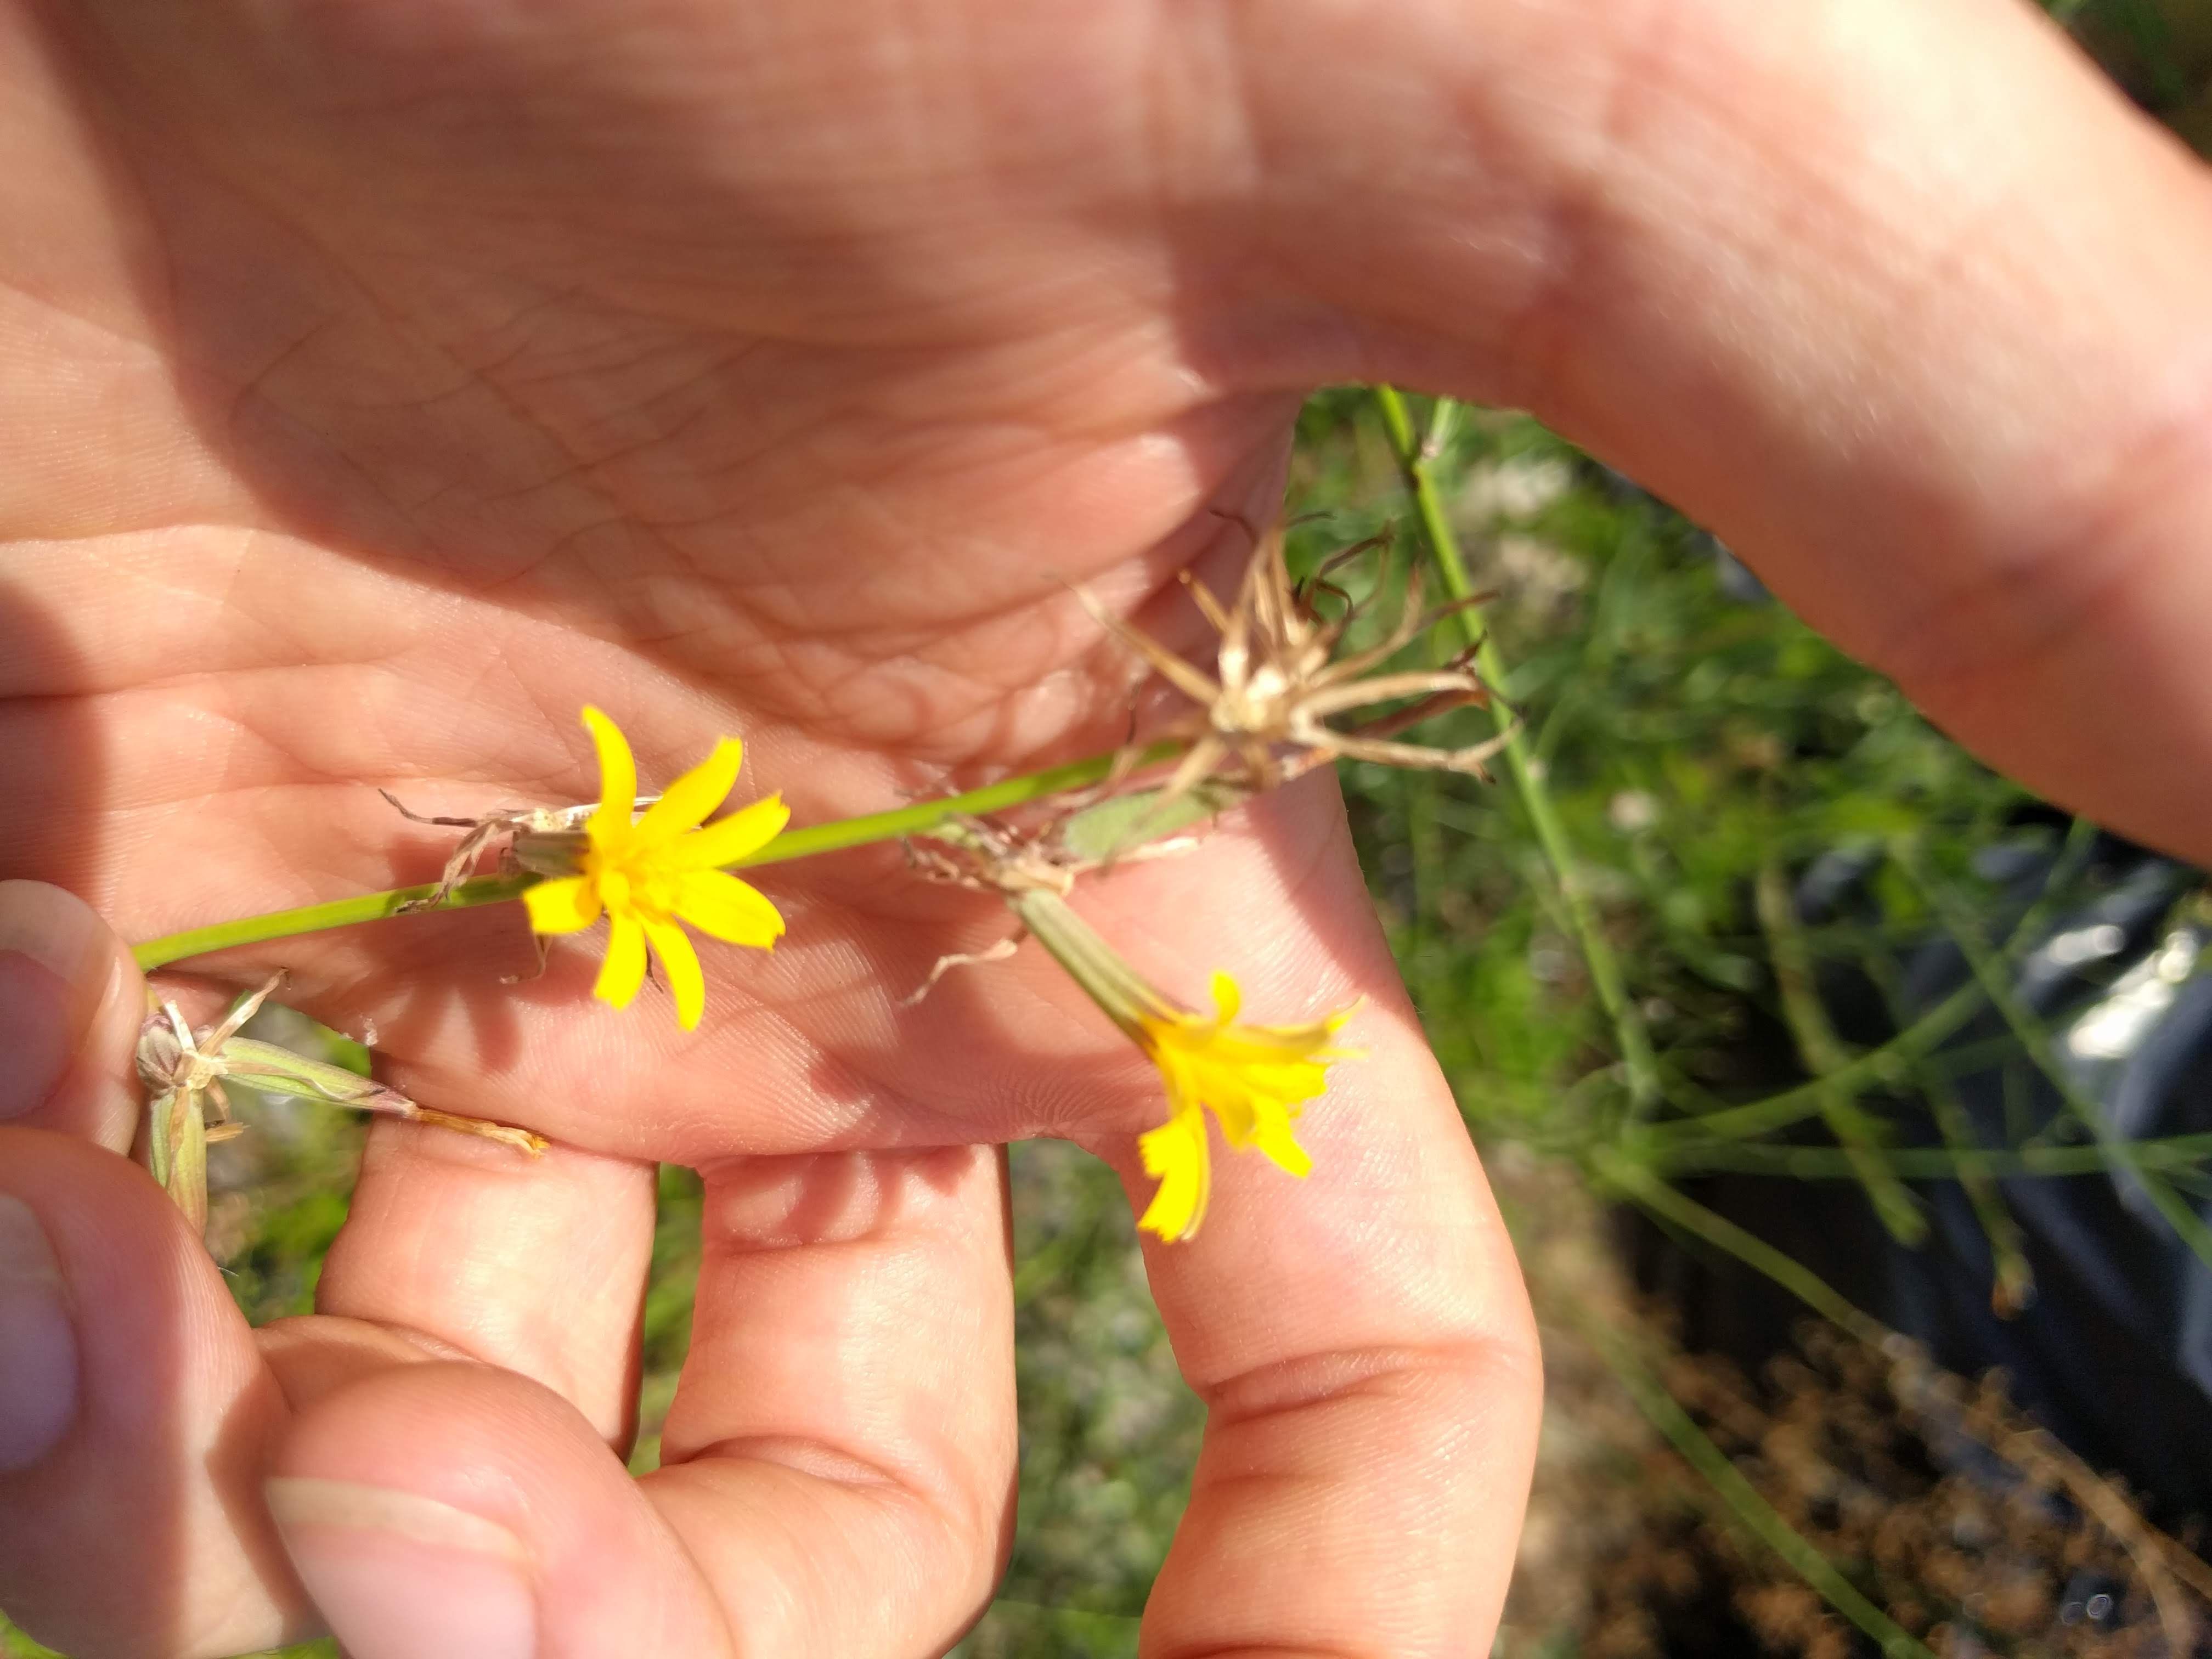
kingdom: Plantae
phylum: Tracheophyta
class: Magnoliopsida
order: Asterales
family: Asteraceae
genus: Chondrilla
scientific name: Chondrilla juncea
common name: Skeleton weed
